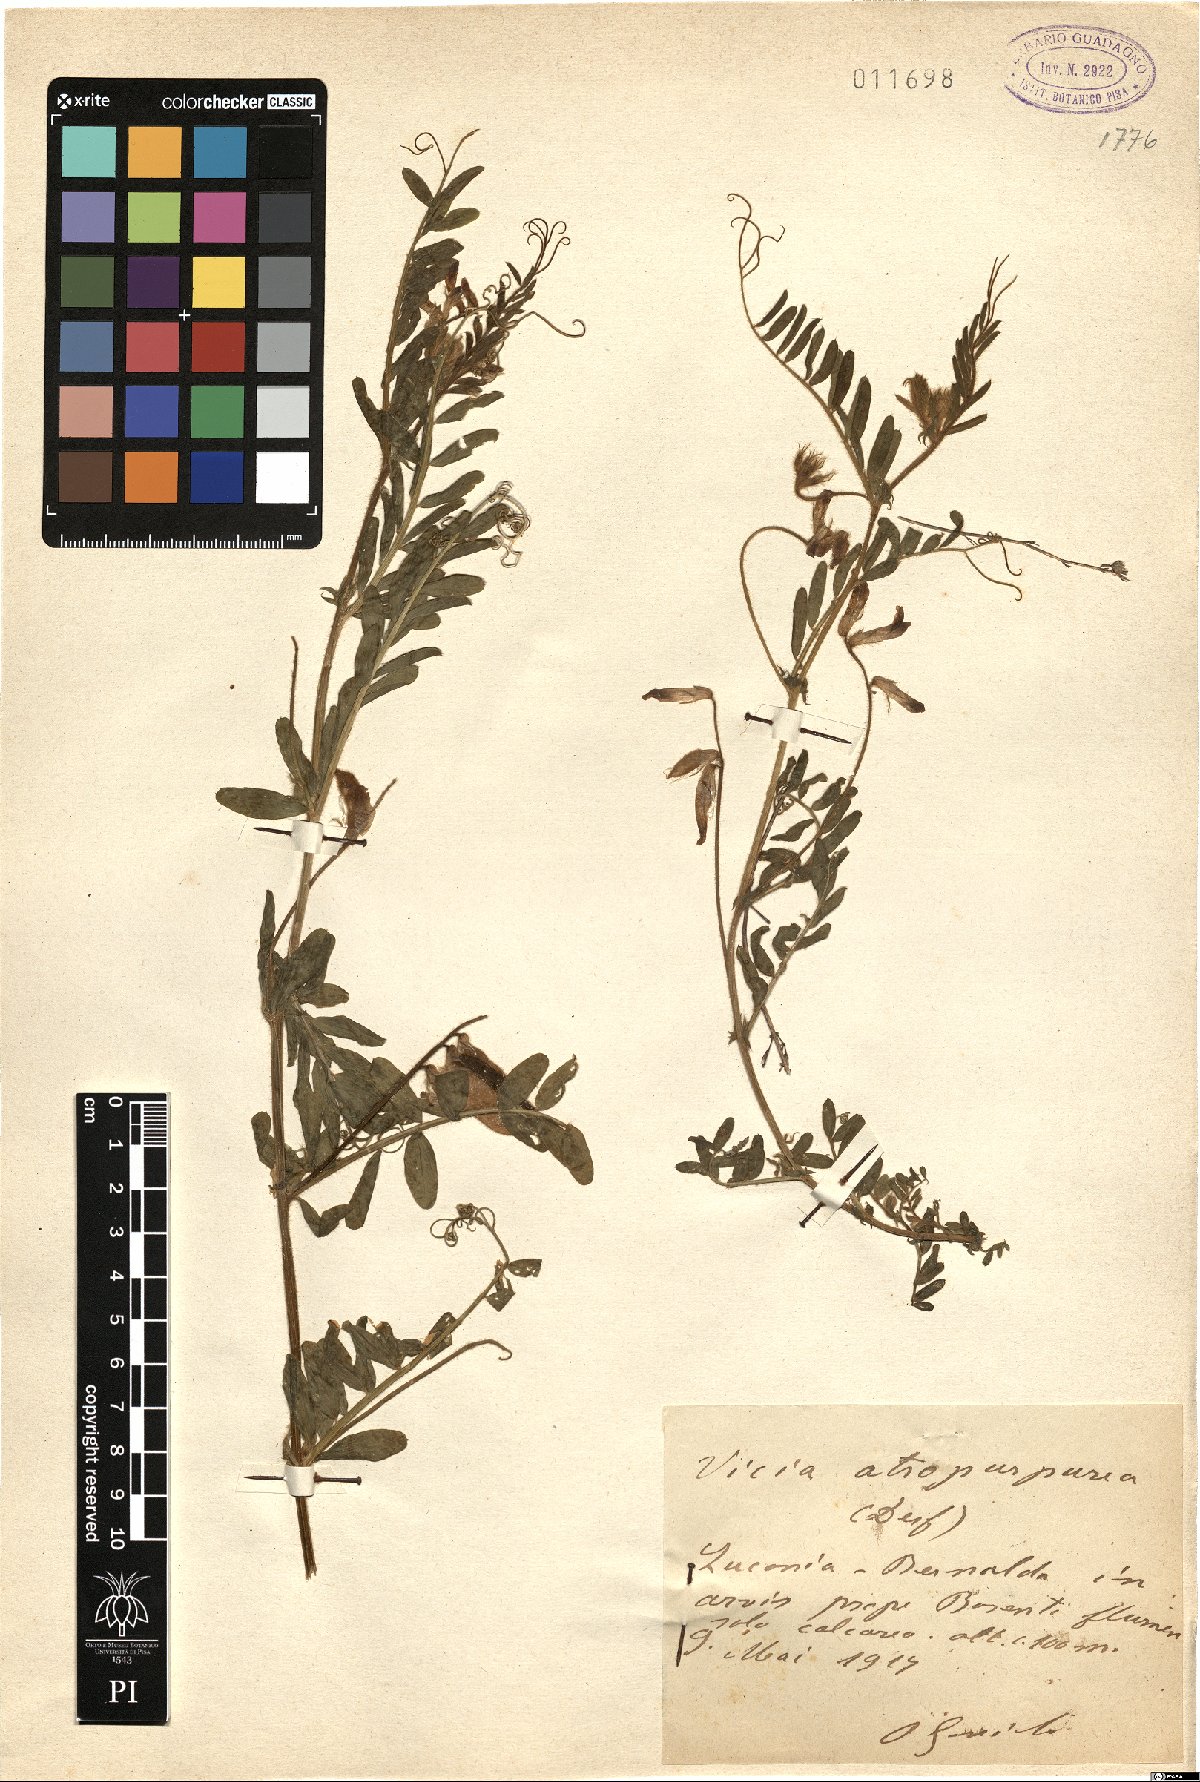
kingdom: Plantae
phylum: Tracheophyta
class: Magnoliopsida
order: Fabales
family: Fabaceae
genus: Vicia
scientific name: Vicia benghalensis
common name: Purple vetch
